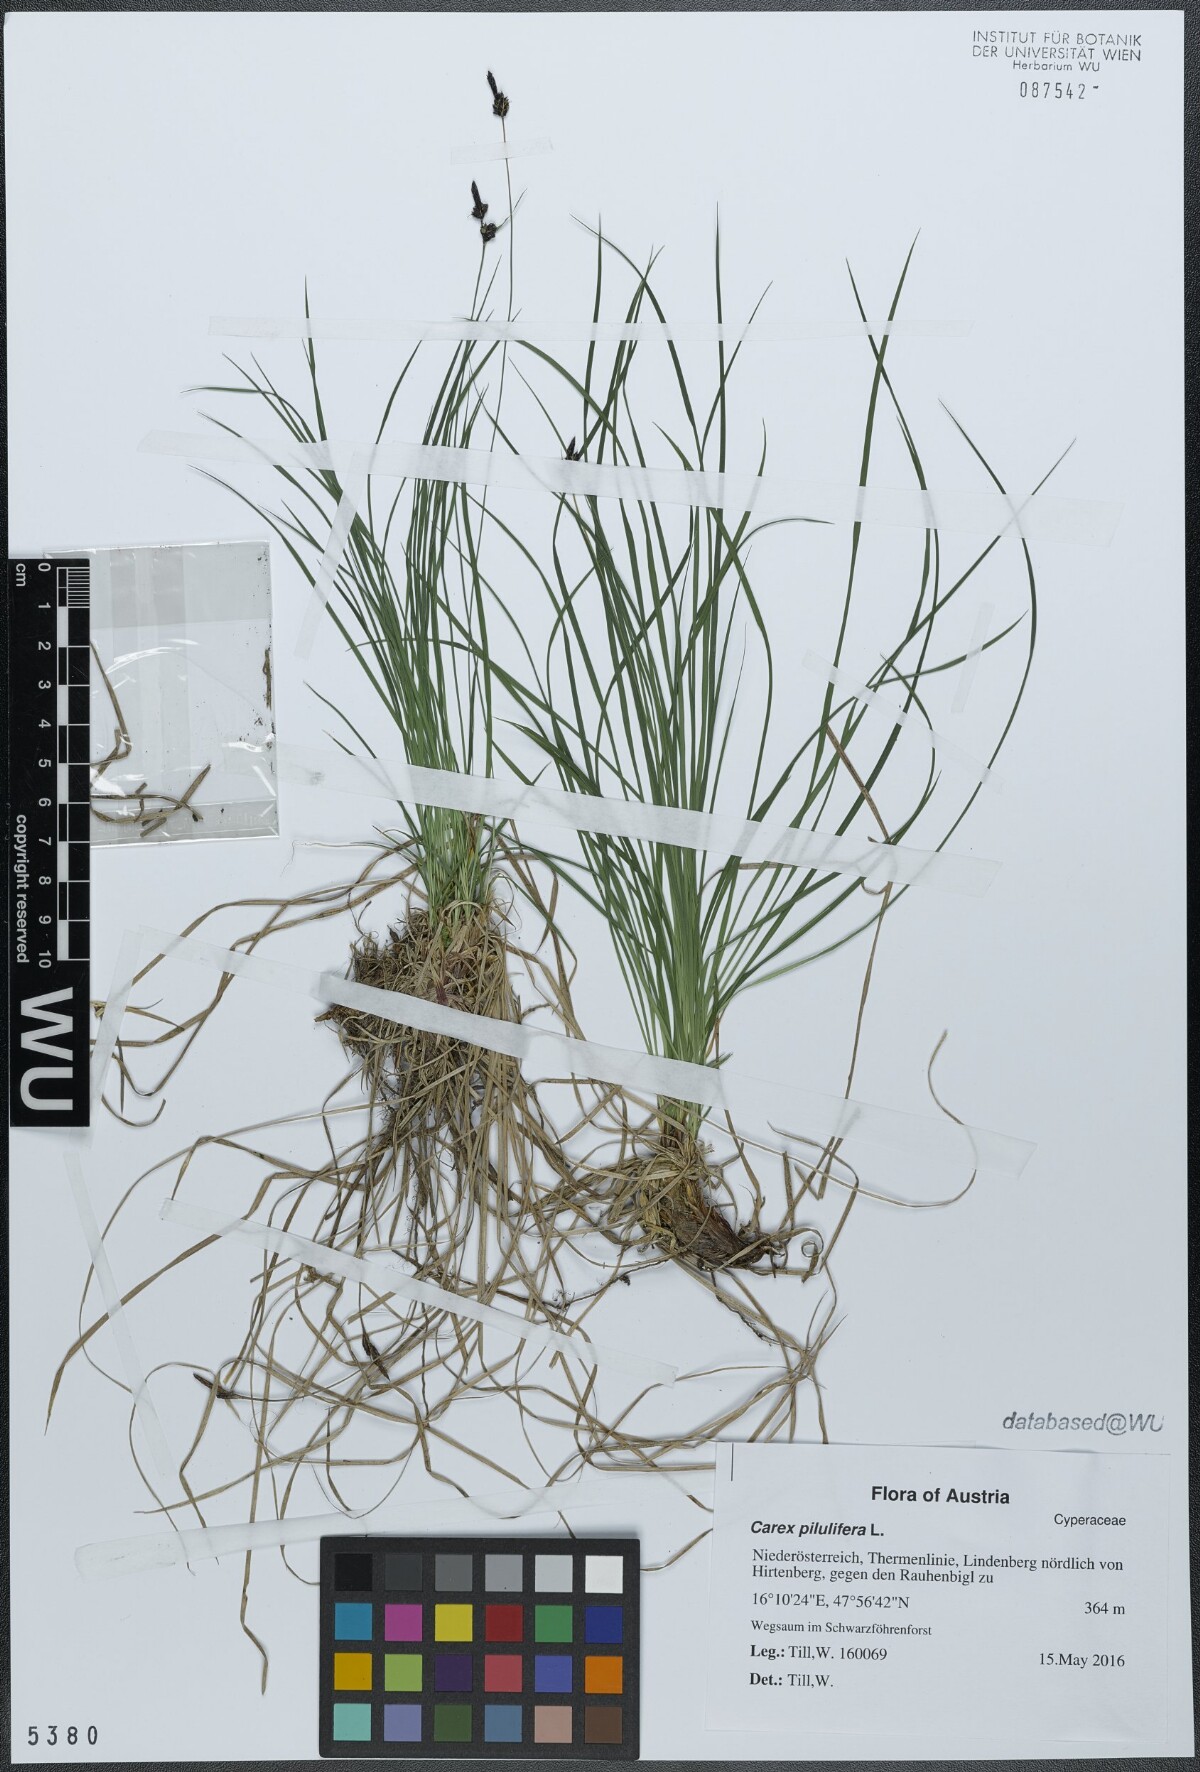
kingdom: Plantae
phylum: Tracheophyta
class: Liliopsida
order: Poales
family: Cyperaceae
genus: Carex
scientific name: Carex pilulifera
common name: Pill sedge
